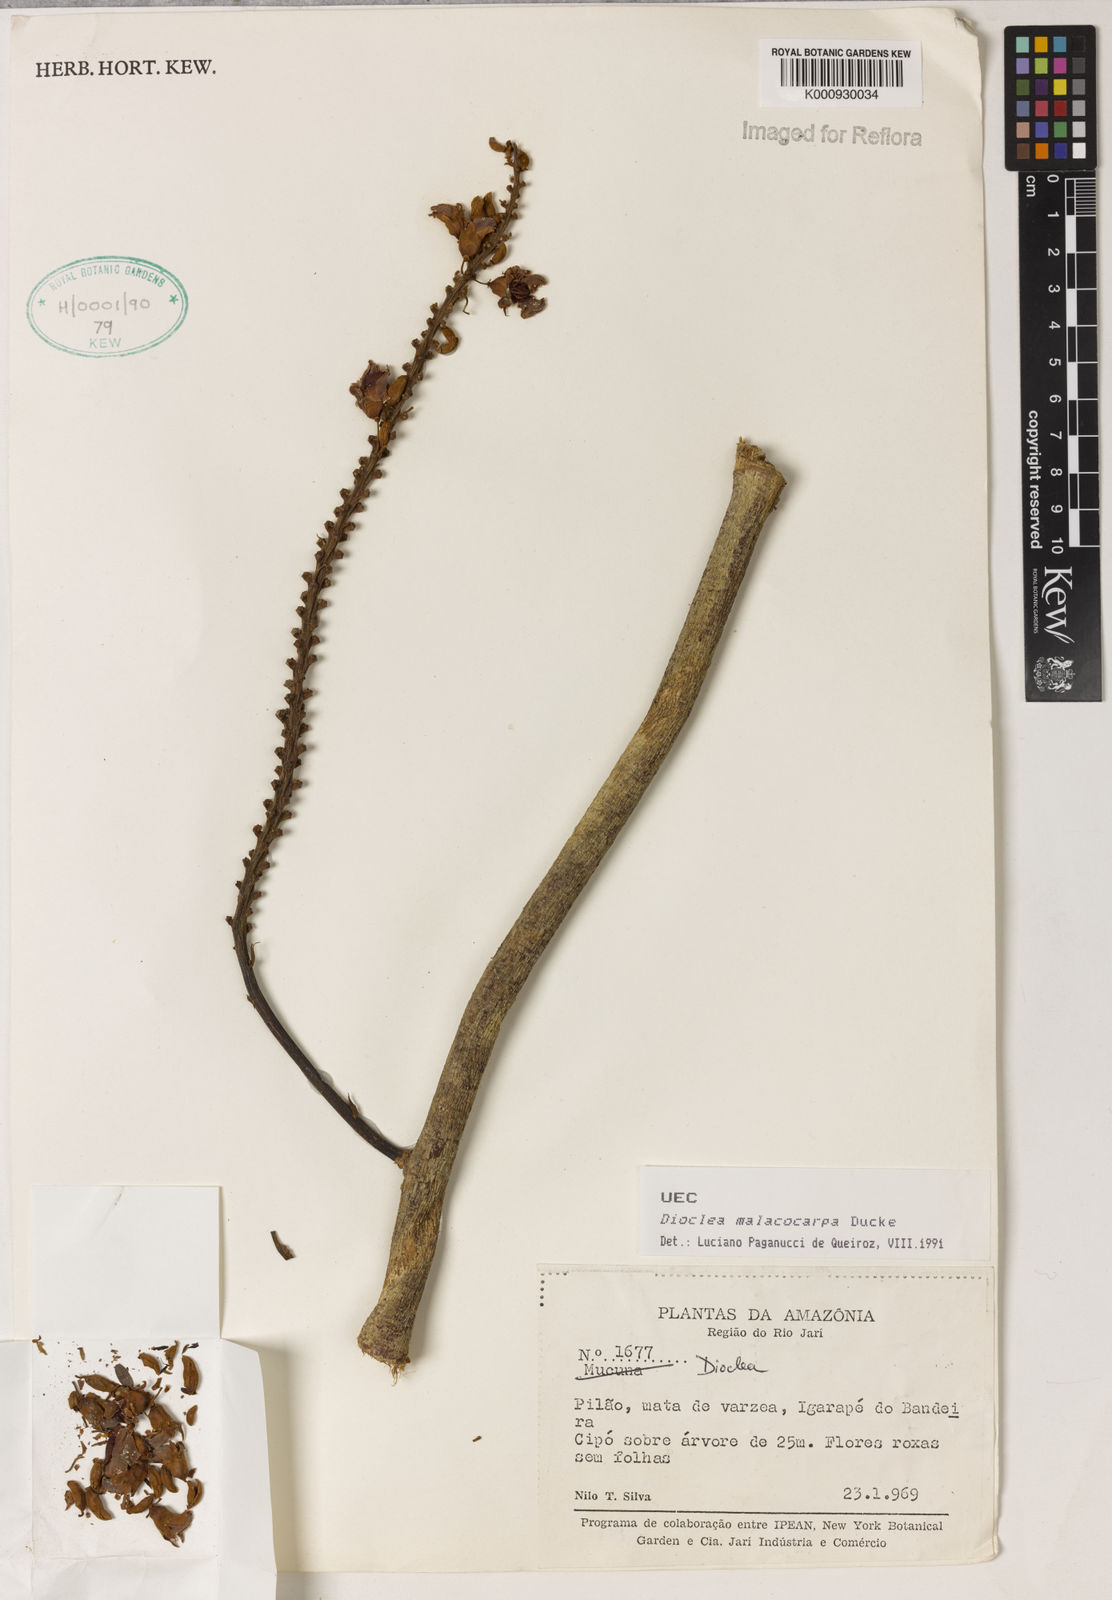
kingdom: Plantae
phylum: Tracheophyta
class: Magnoliopsida
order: Fabales
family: Fabaceae
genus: Macropsychanthus
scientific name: Macropsychanthus malacocarpus
